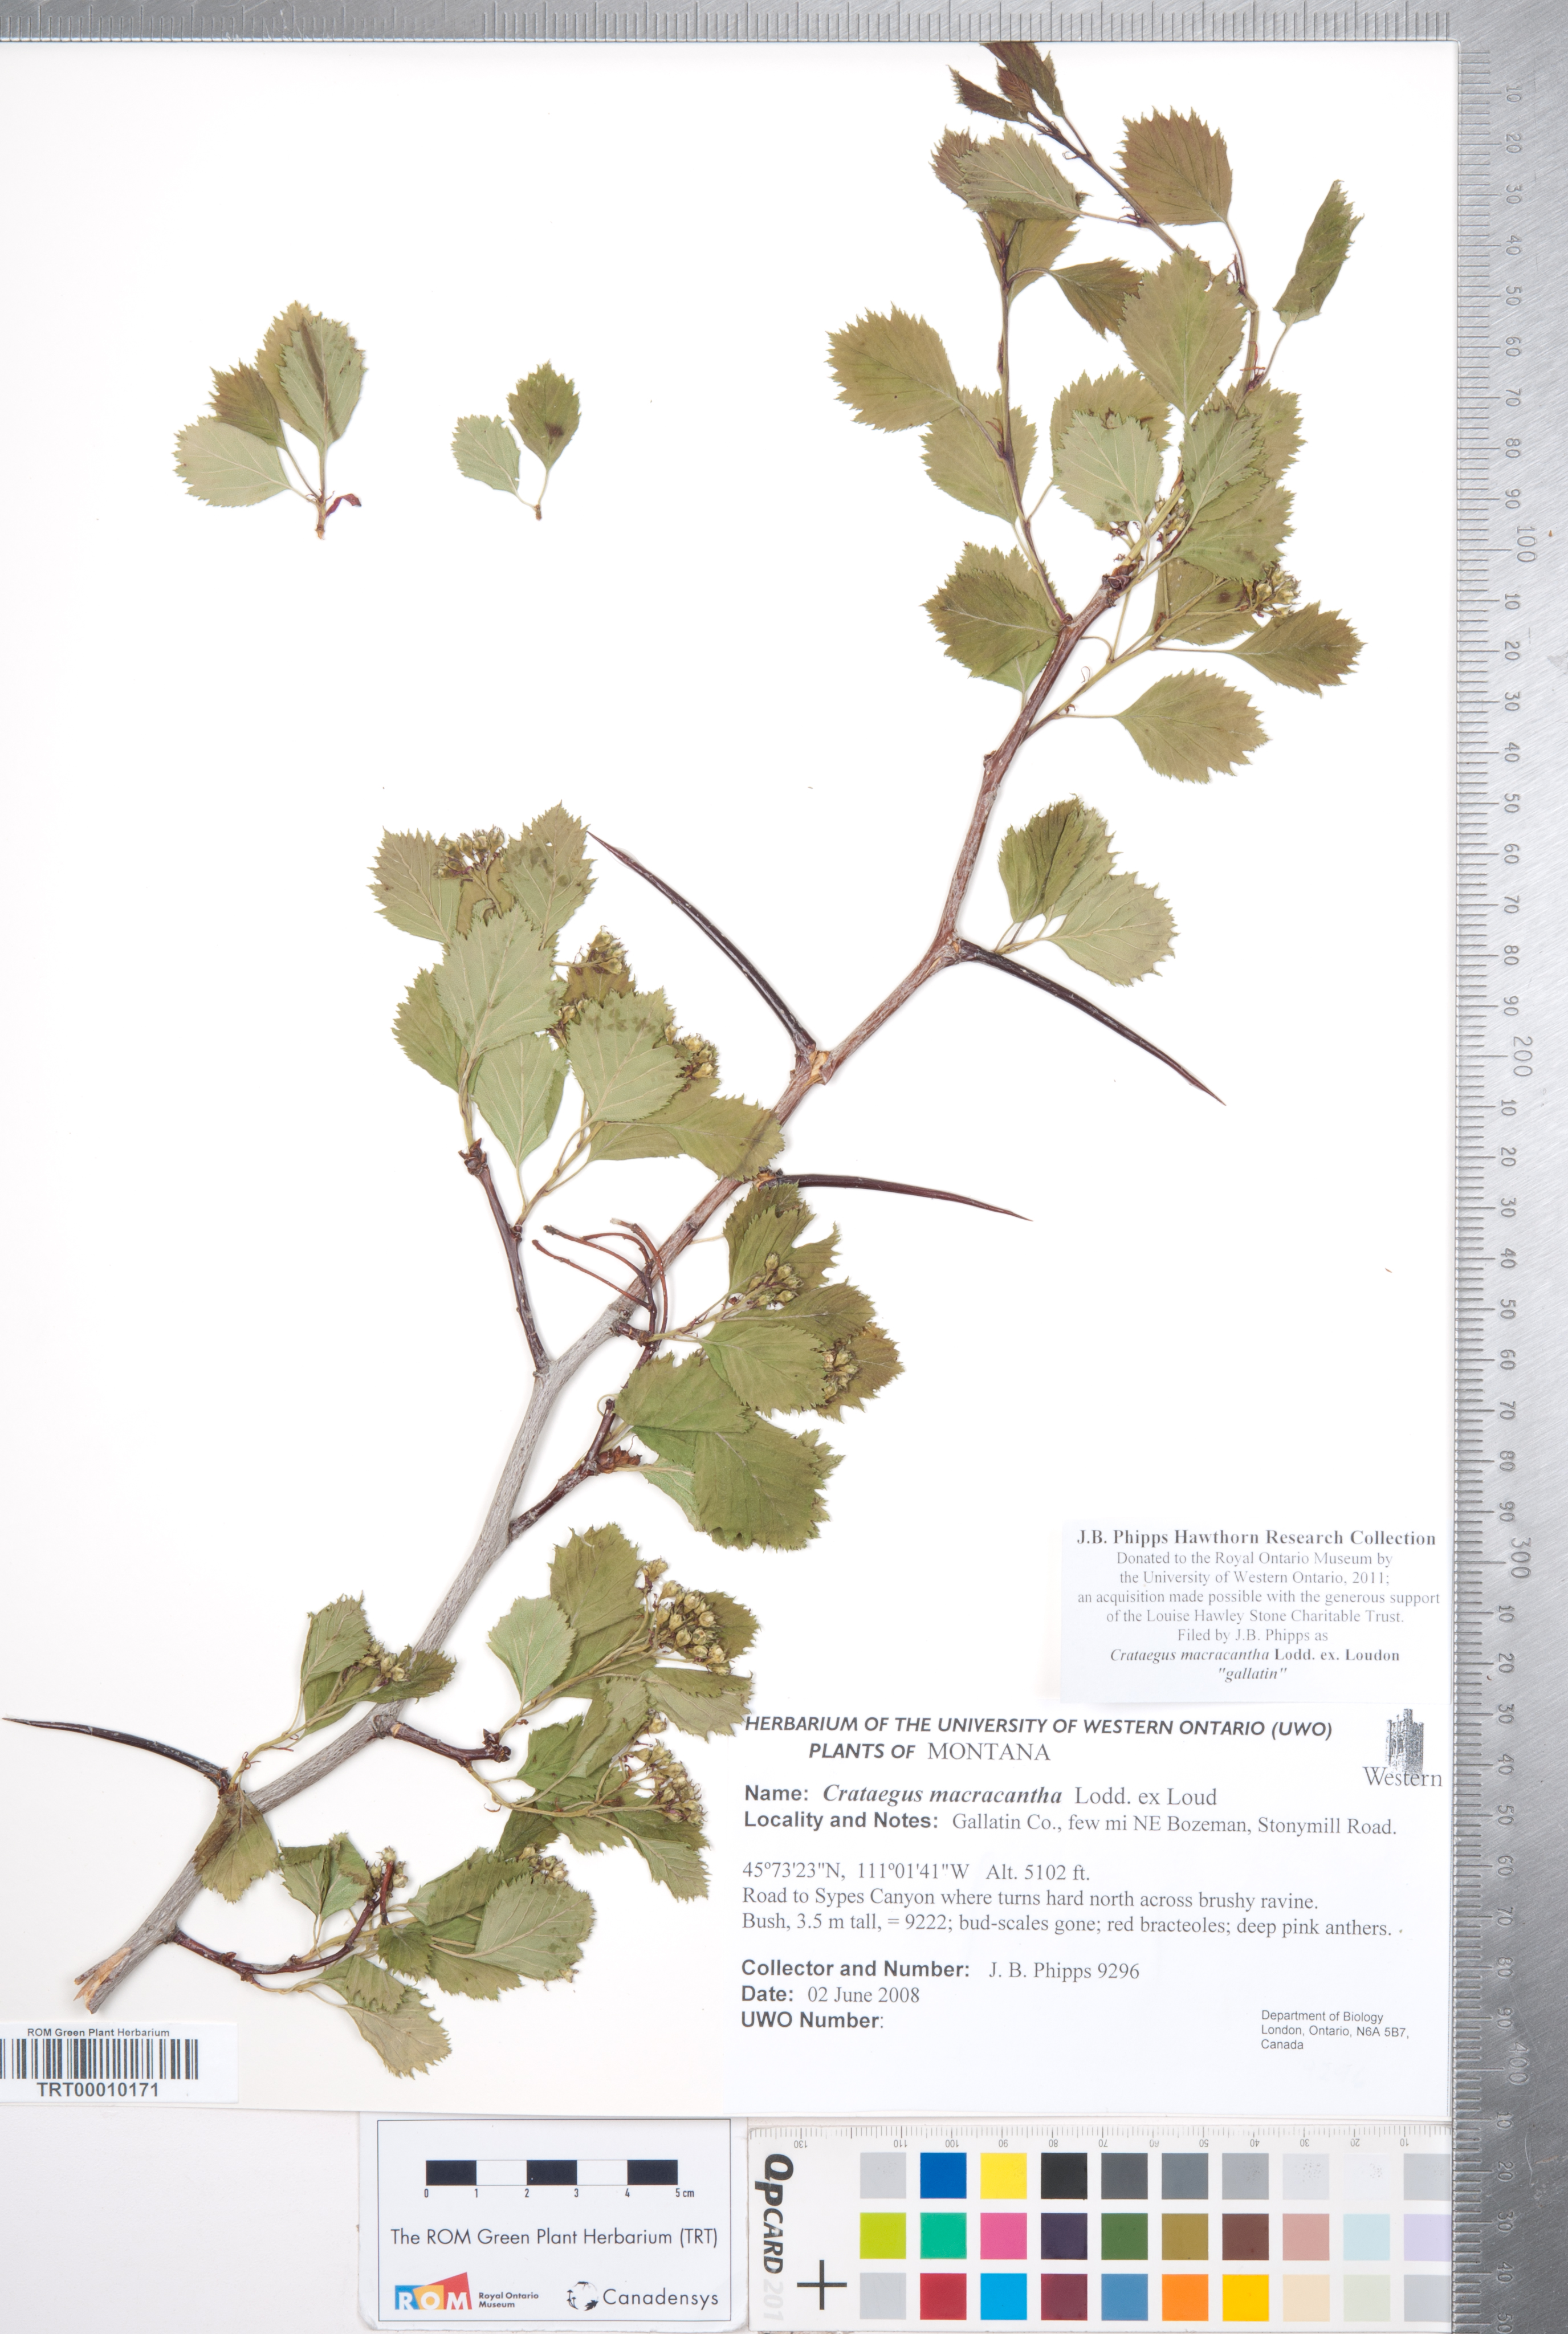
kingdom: Plantae
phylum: Tracheophyta
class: Magnoliopsida
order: Rosales
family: Rosaceae
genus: Crataegus
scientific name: Crataegus macracantha
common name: Large-thorn hawthorn
